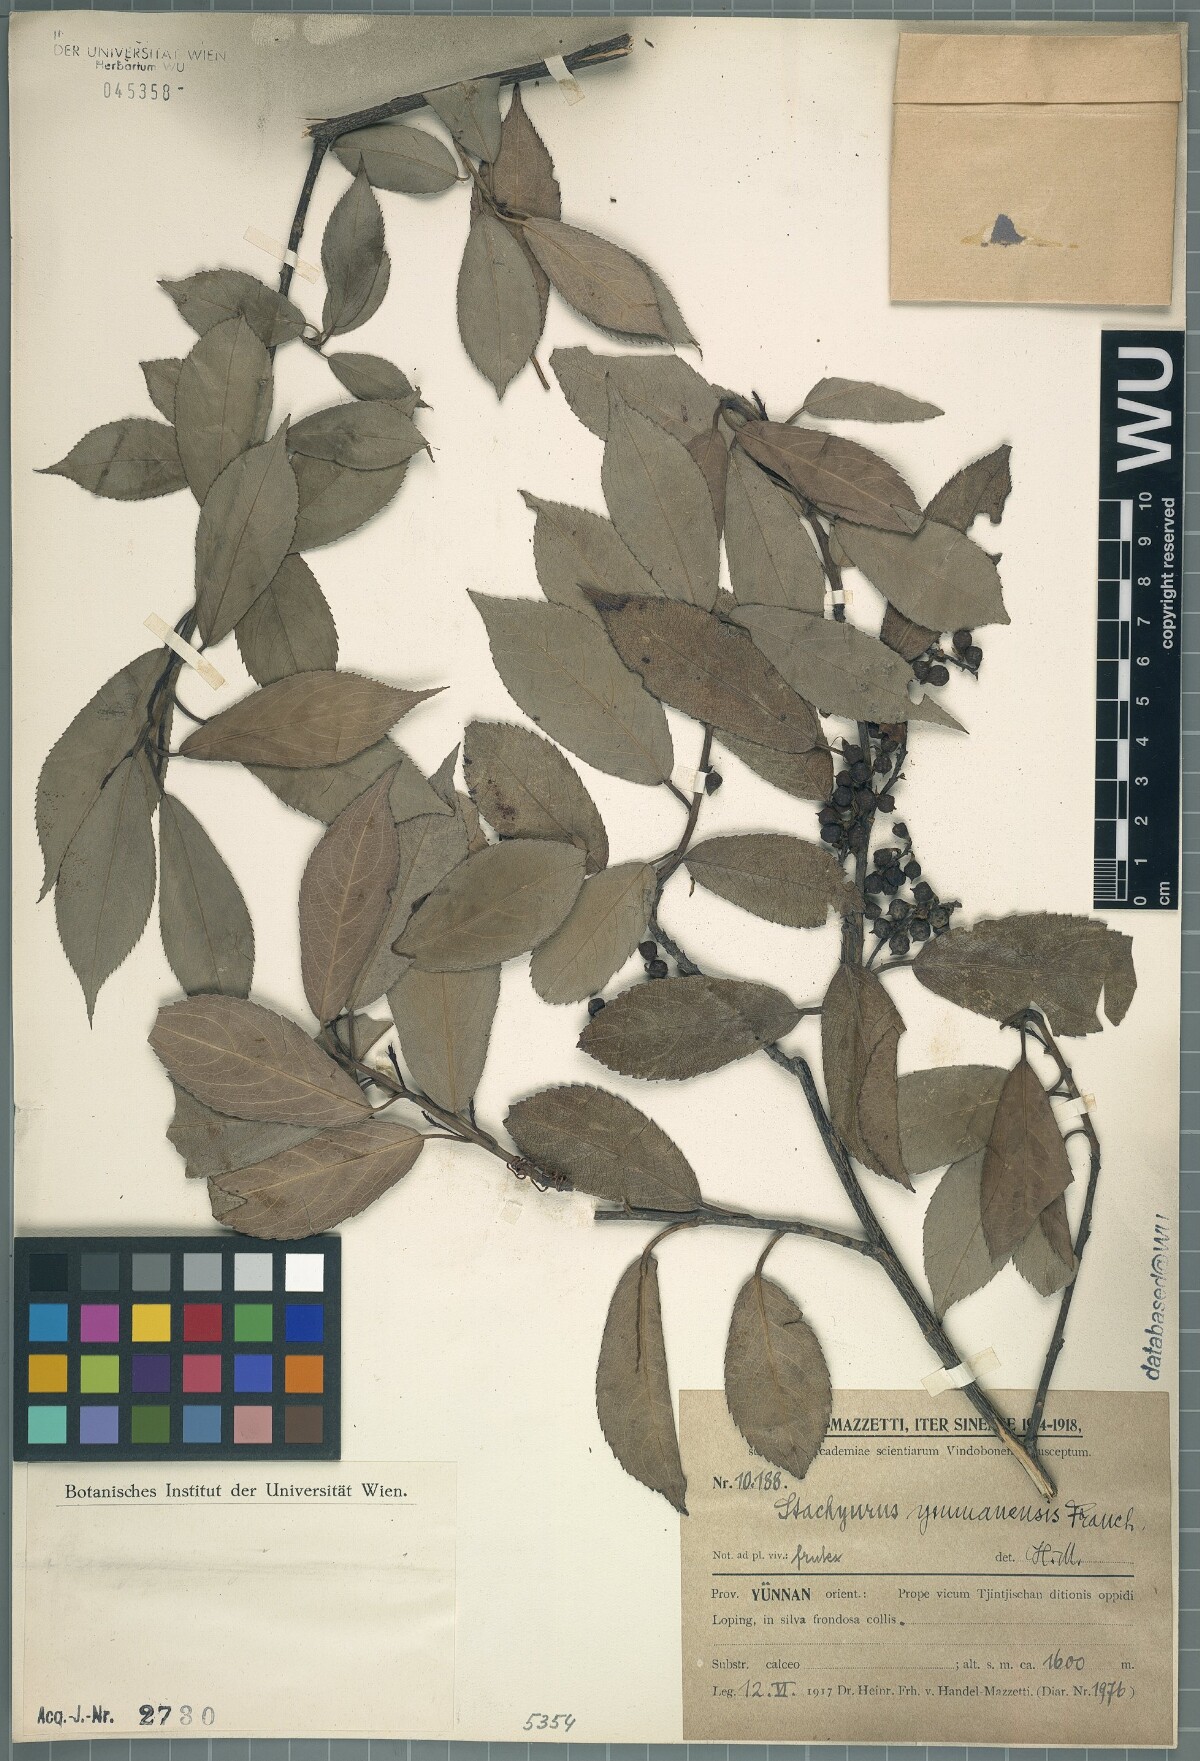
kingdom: Plantae
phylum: Tracheophyta
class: Magnoliopsida
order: Crossosomatales
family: Stachyuraceae
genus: Stachyurus
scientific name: Stachyurus yunnanensis
